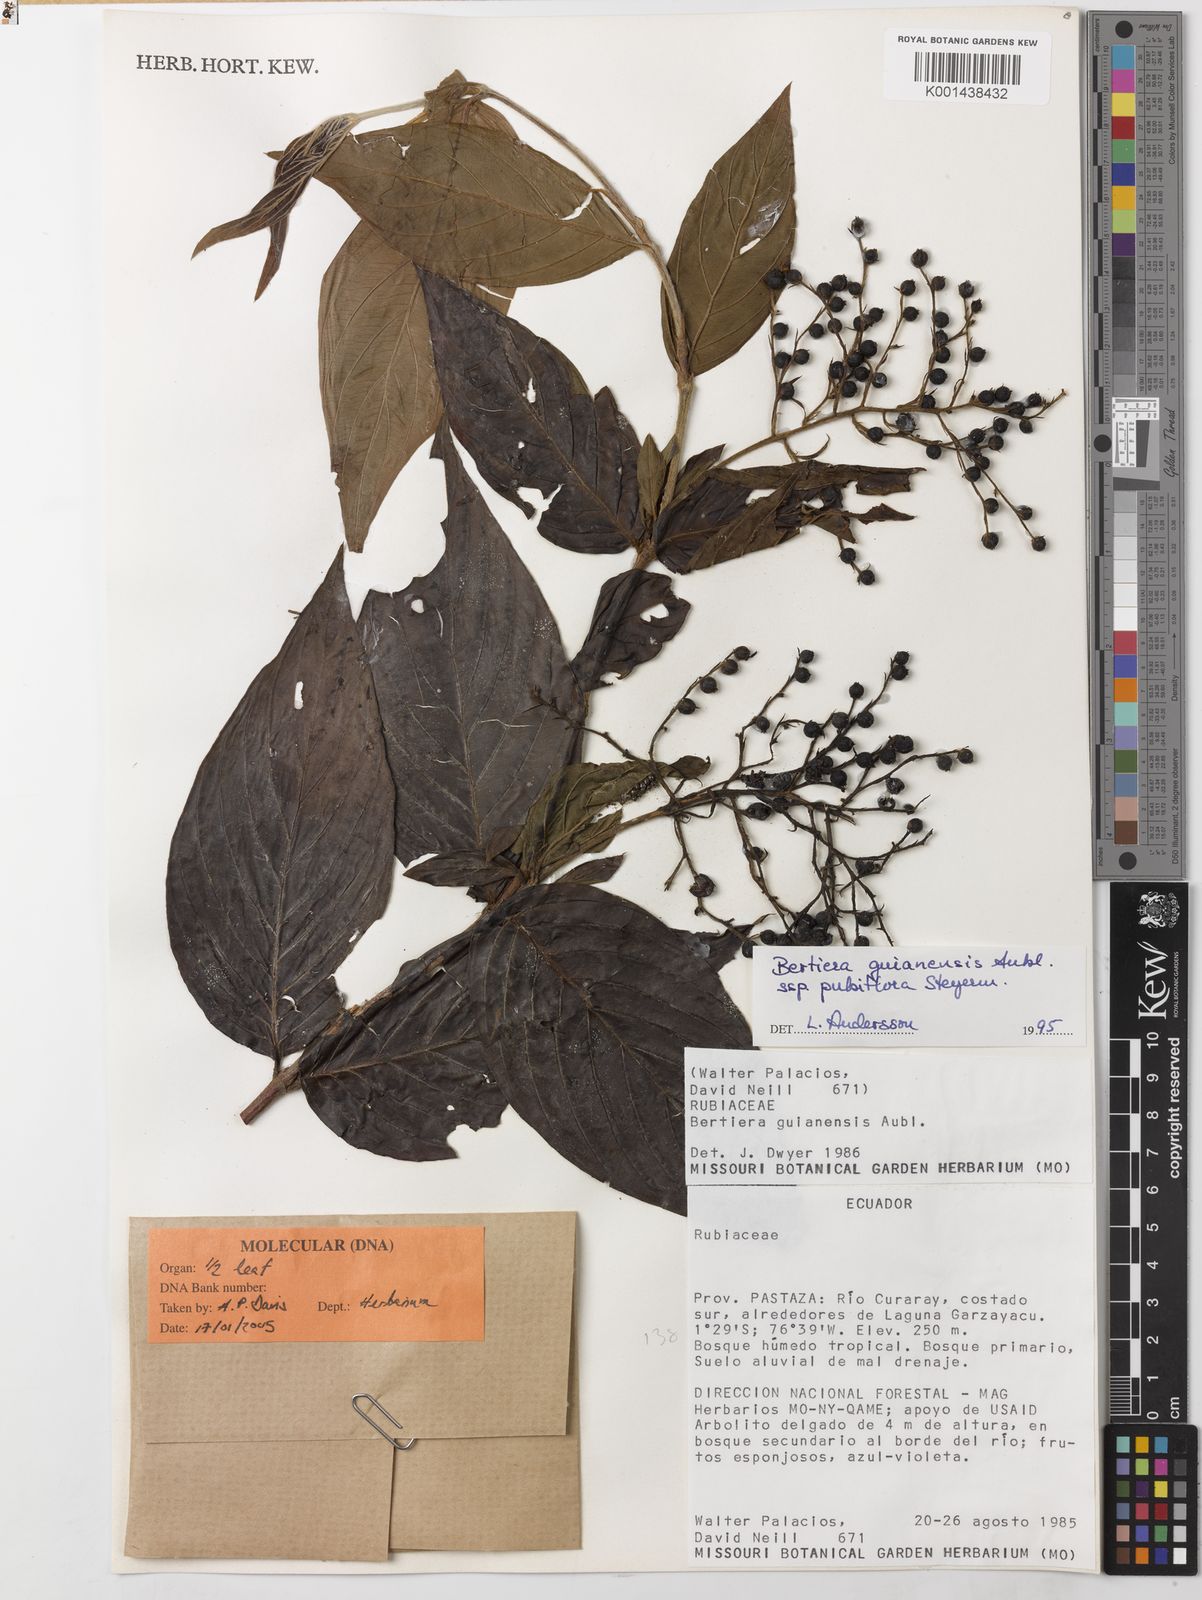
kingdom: Plantae
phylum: Tracheophyta
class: Magnoliopsida
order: Gentianales
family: Rubiaceae
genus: Bertiera
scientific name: Bertiera angustifolia
